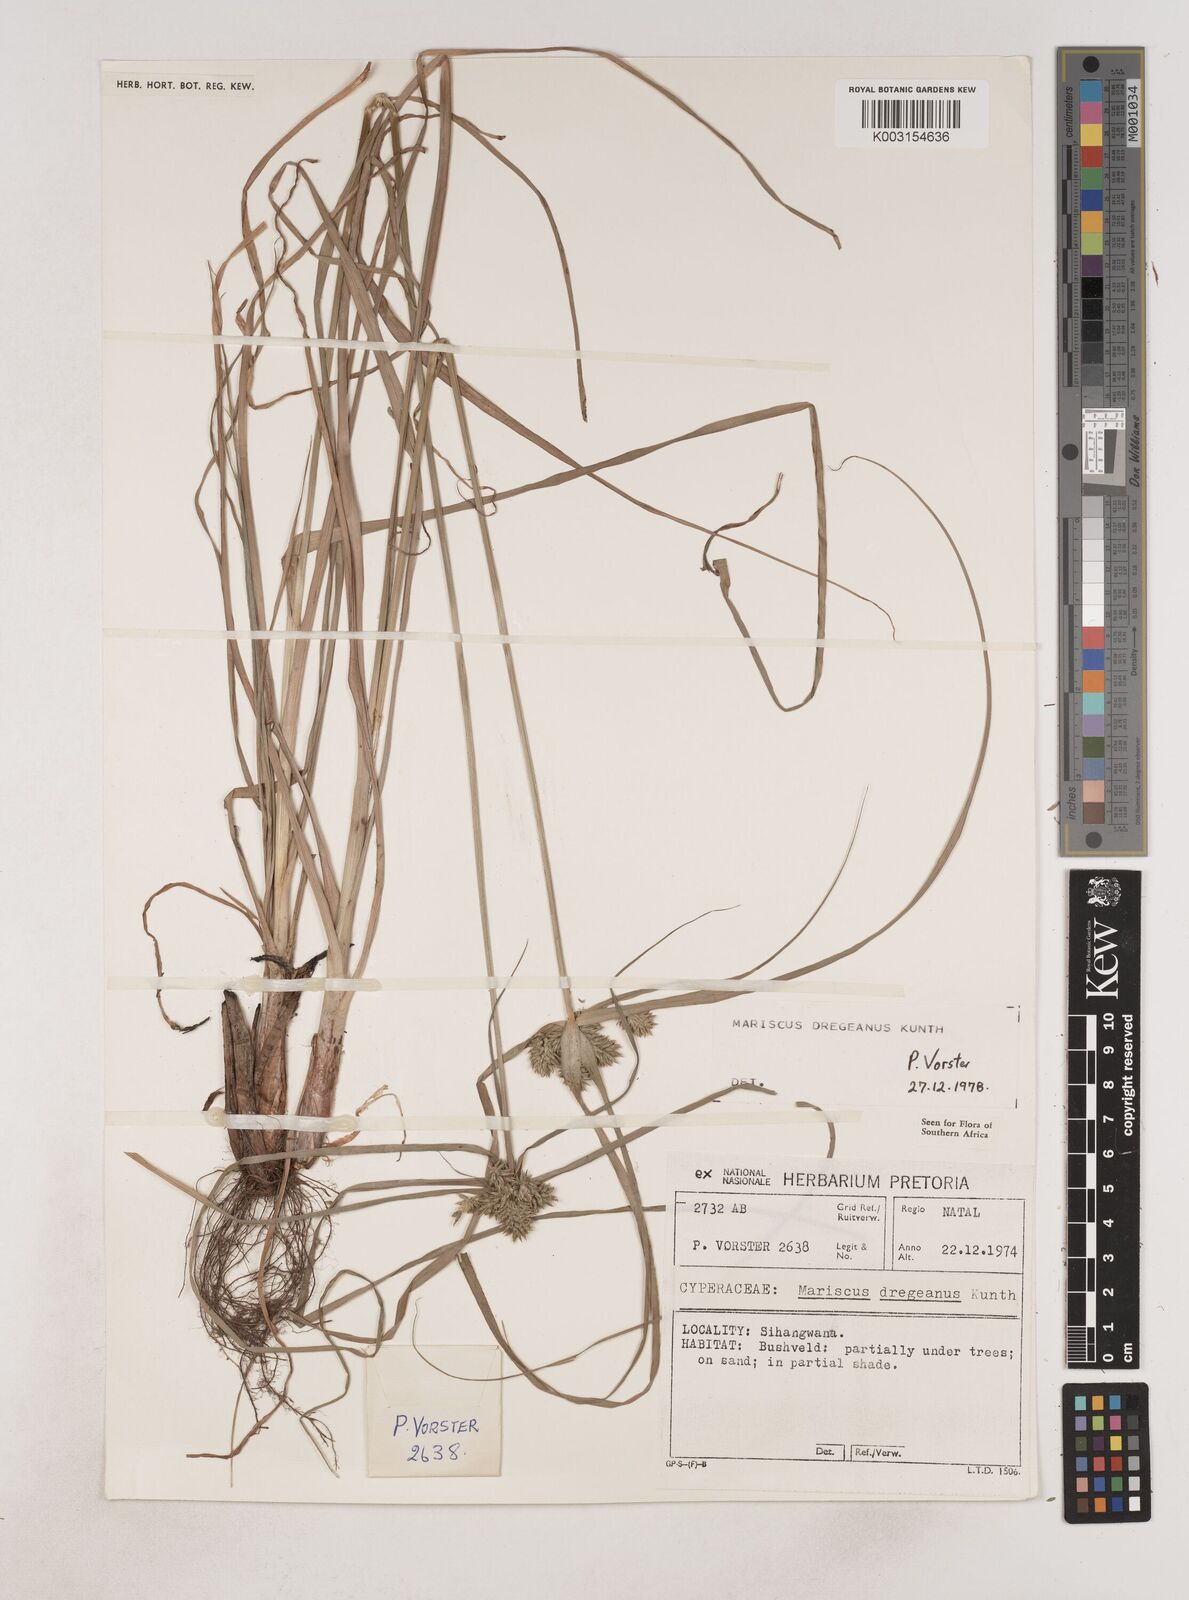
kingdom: Plantae
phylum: Tracheophyta
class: Liliopsida
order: Poales
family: Cyperaceae
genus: Cyperus
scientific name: Cyperus dubius
